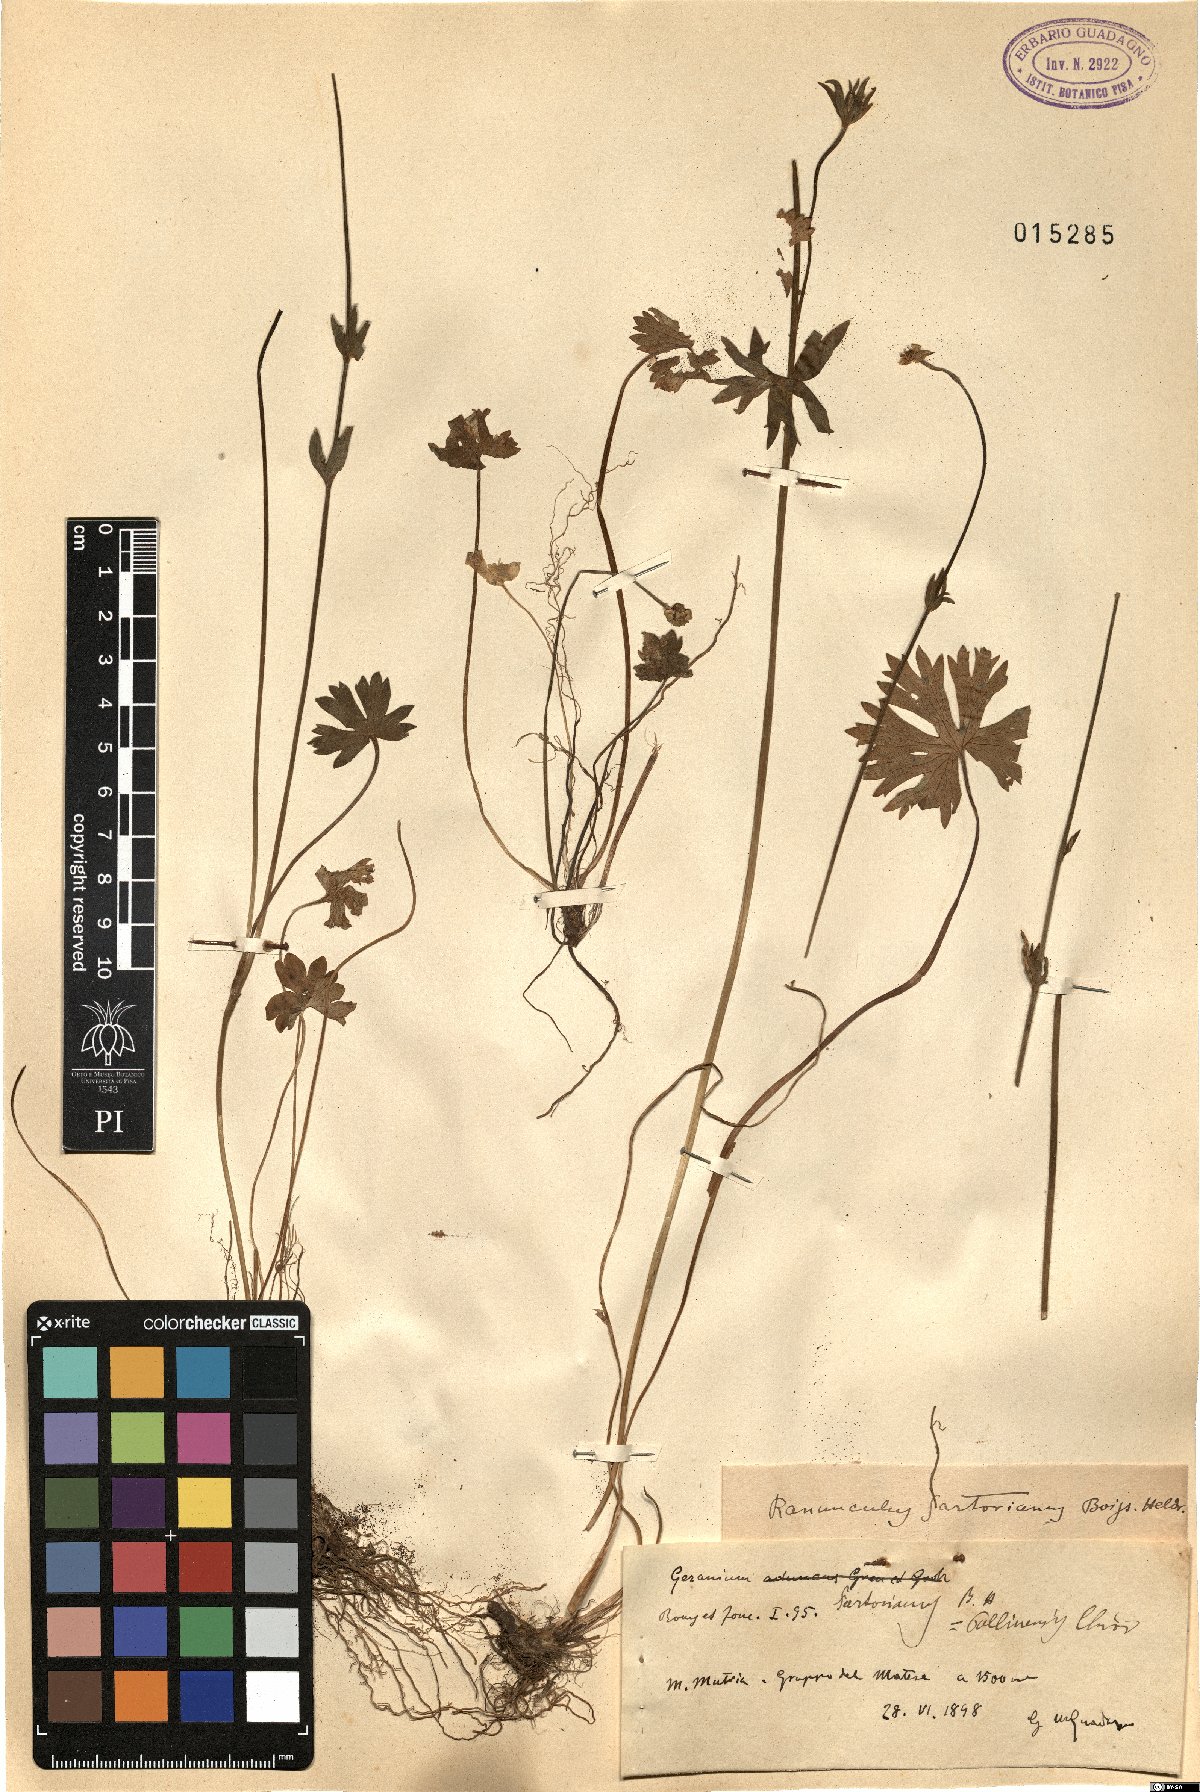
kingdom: Plantae
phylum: Tracheophyta
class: Magnoliopsida
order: Ranunculales
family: Ranunculaceae
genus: Ranunculus
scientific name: Ranunculus sartorianus
